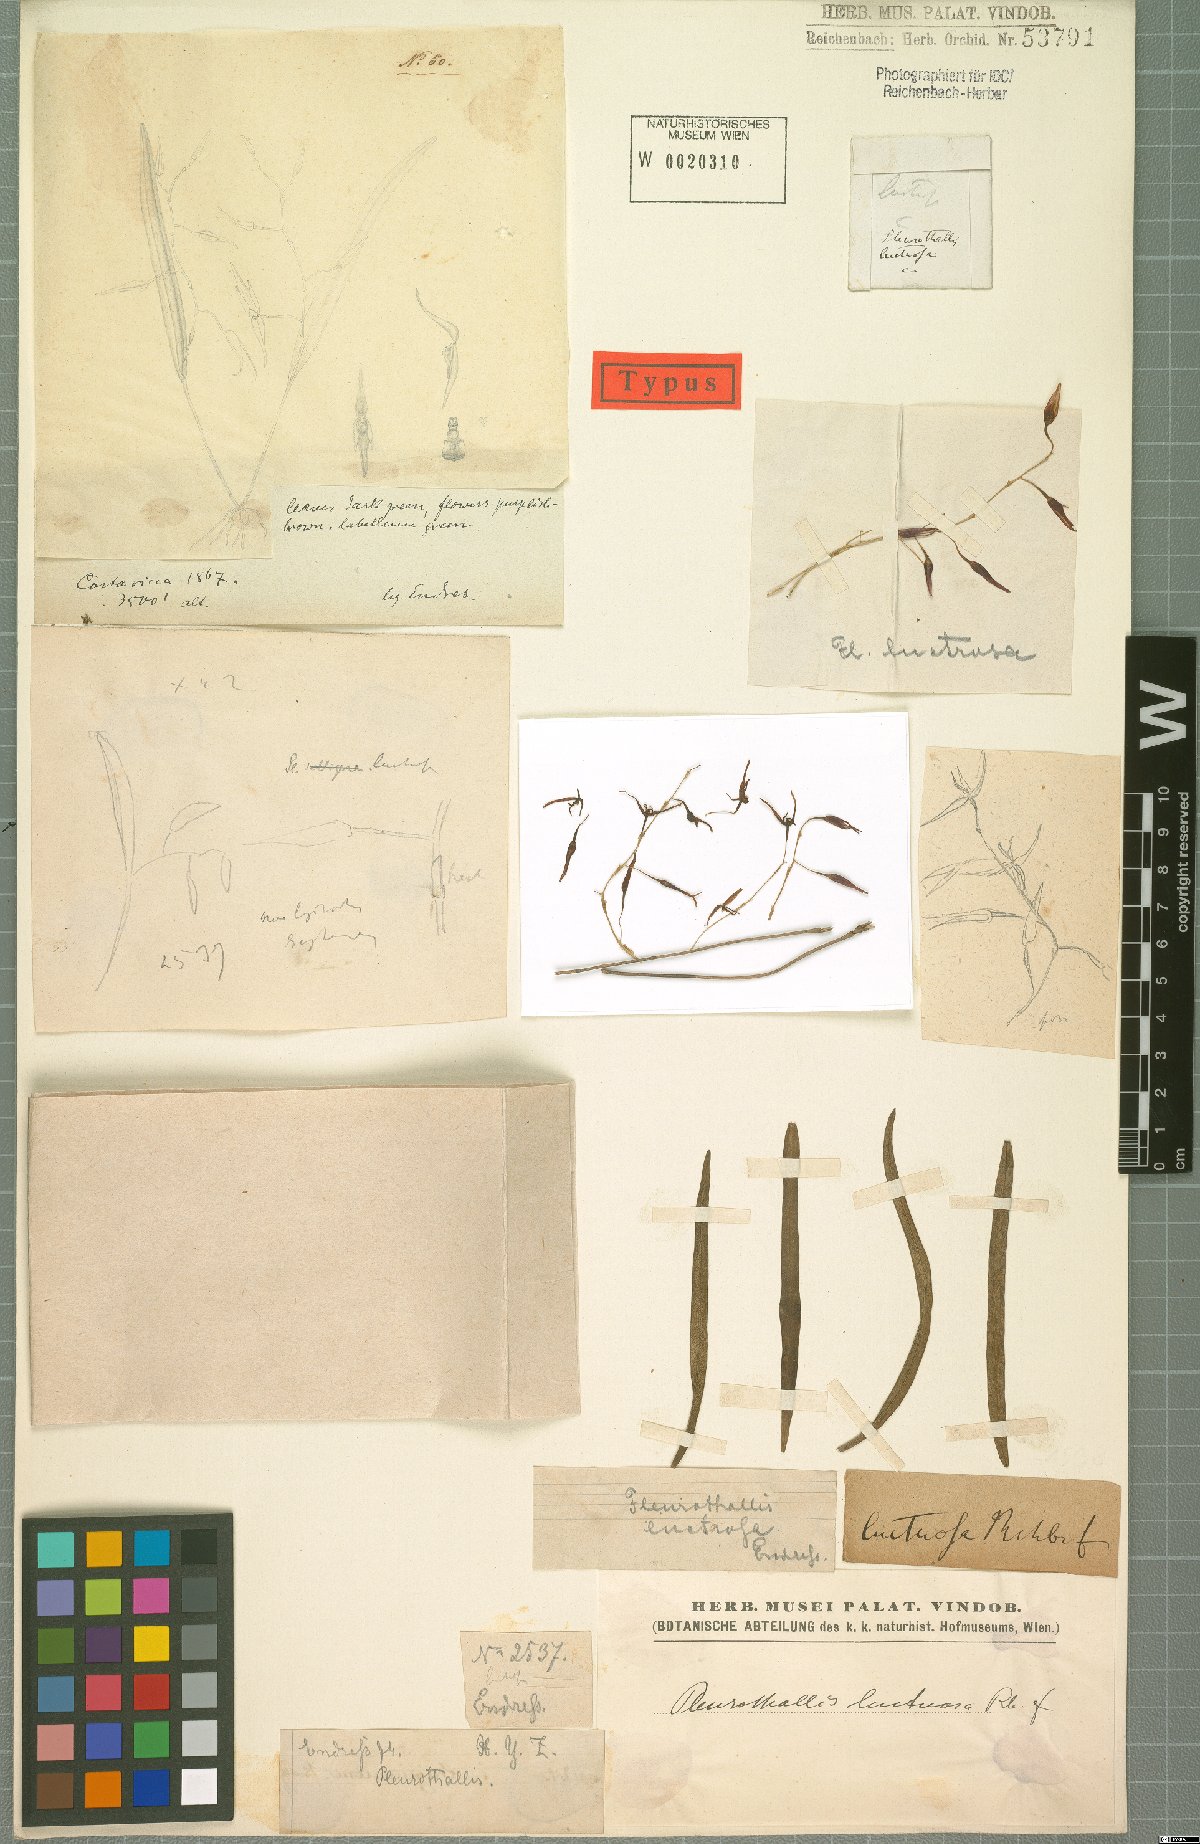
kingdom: Plantae
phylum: Tracheophyta
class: Liliopsida
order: Asparagales
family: Orchidaceae
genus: Pleurothallis
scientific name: Pleurothallis luctuosa
